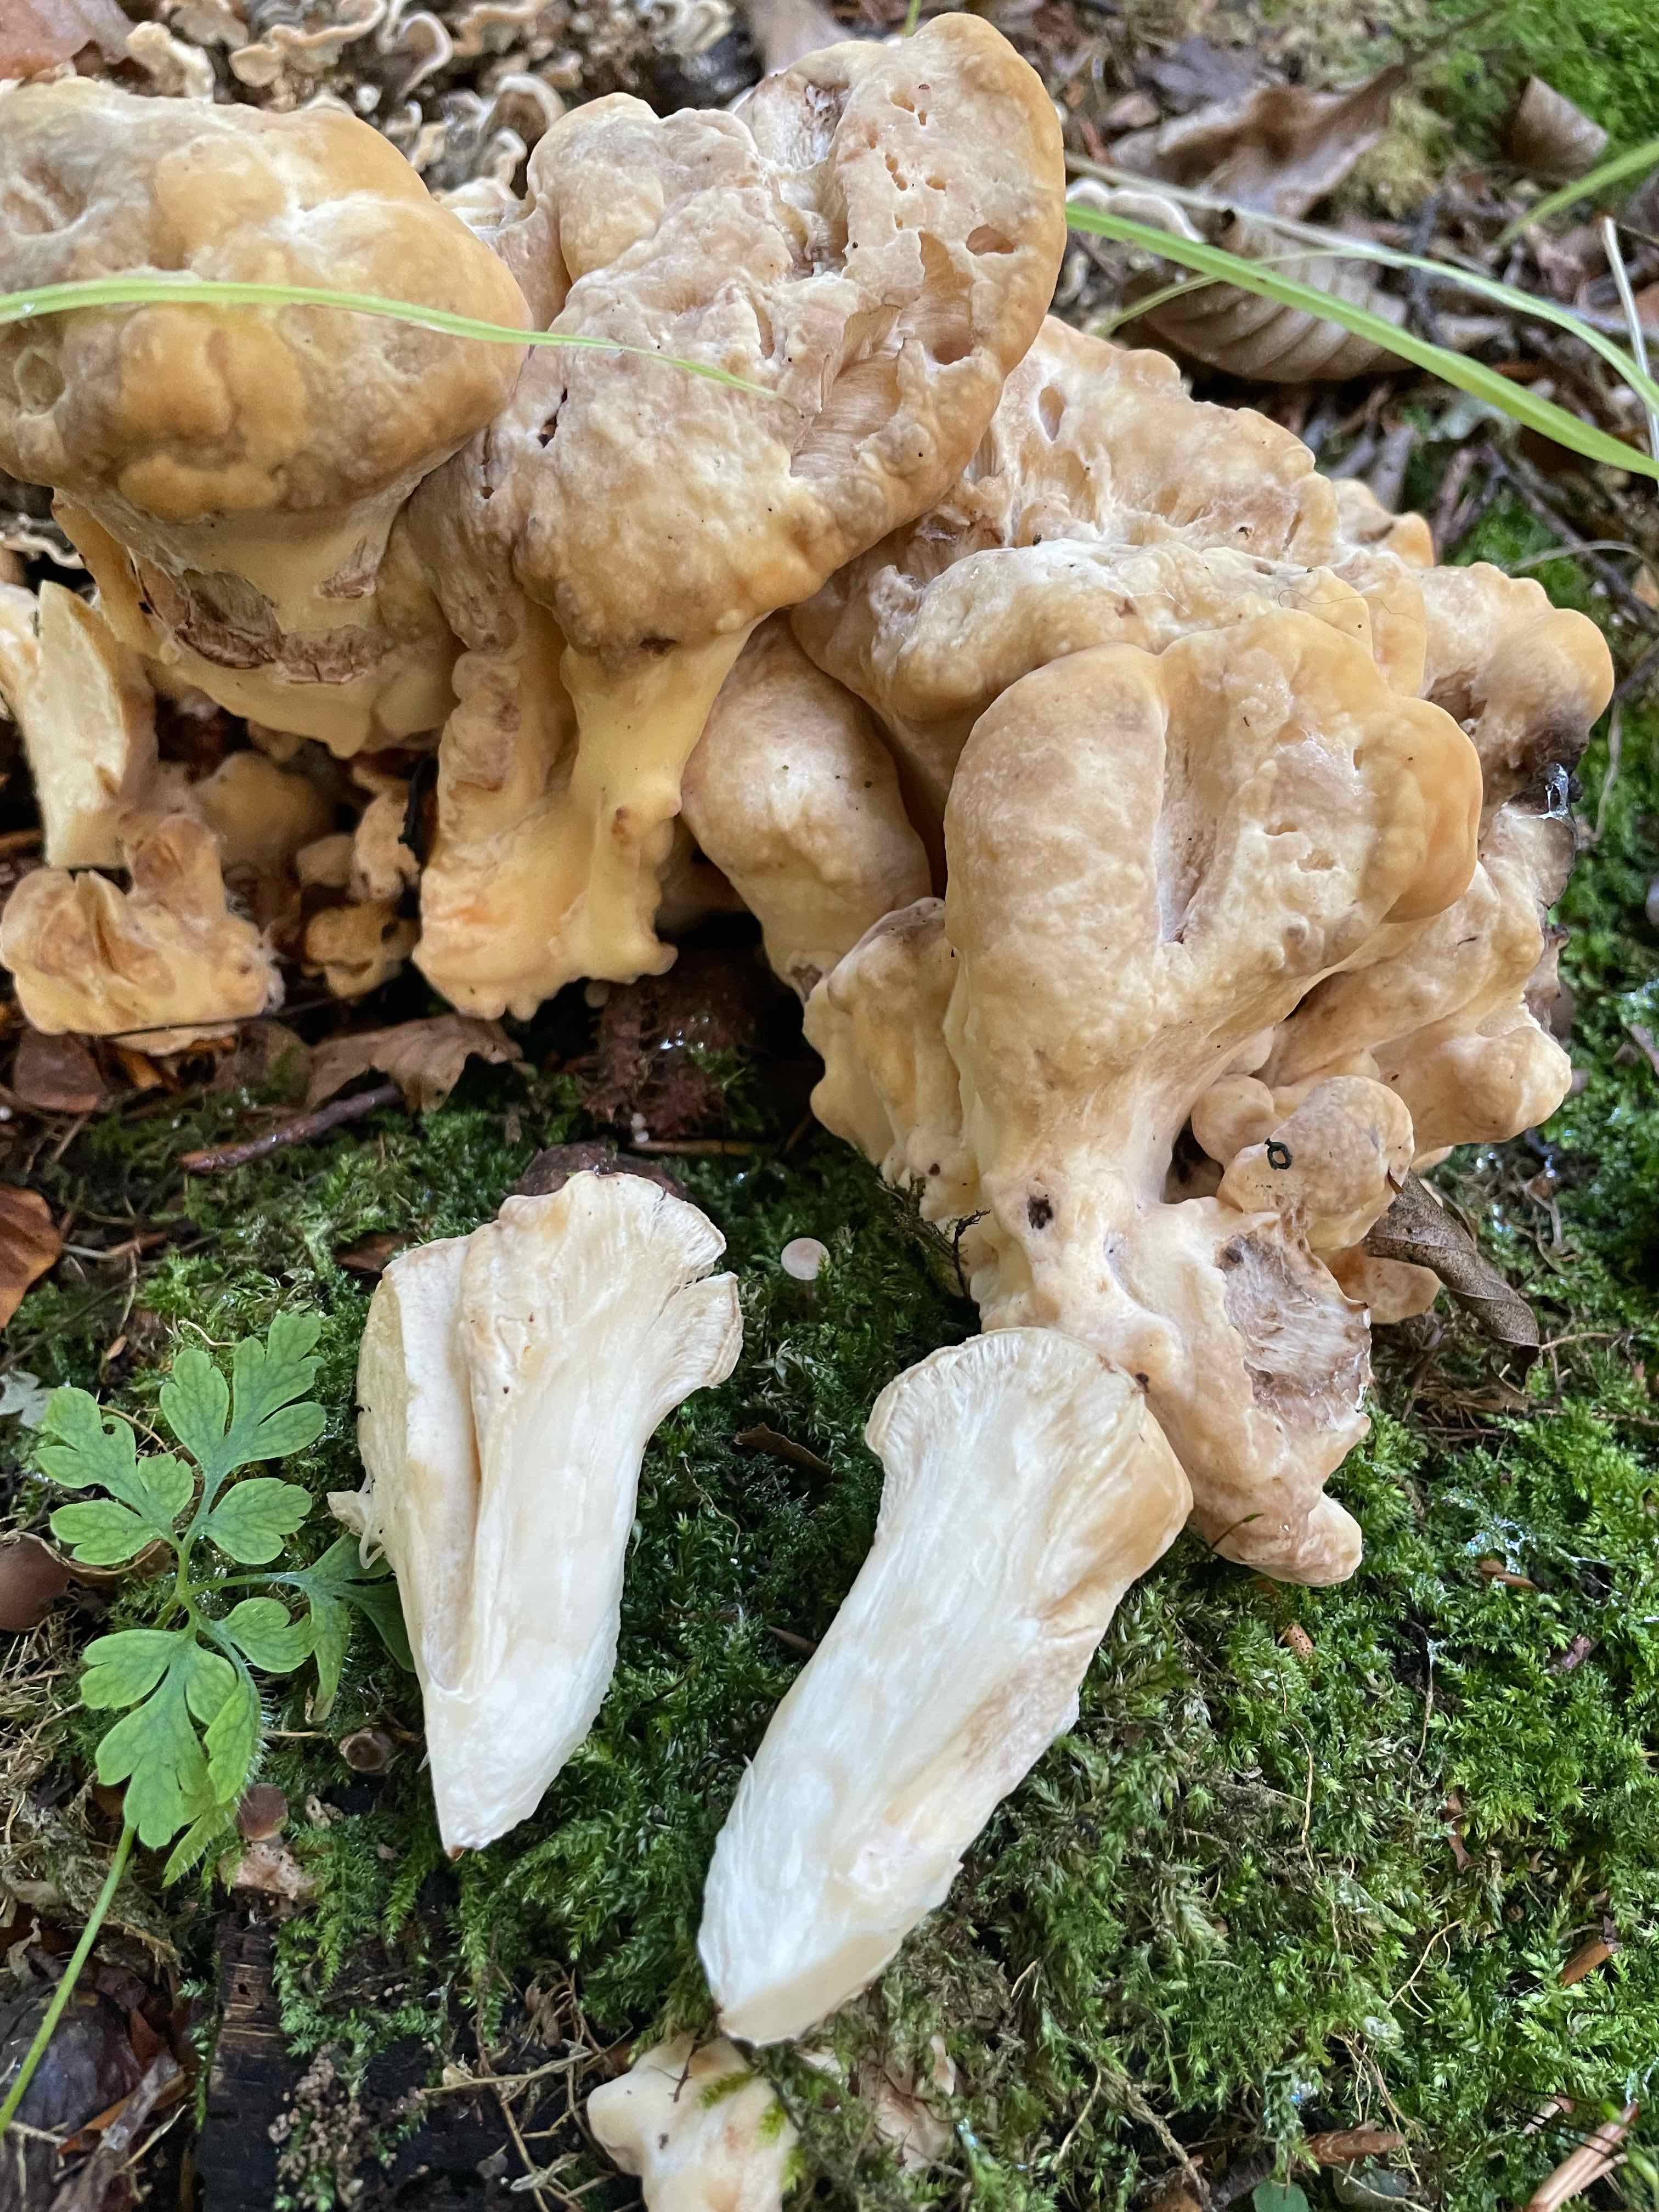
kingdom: Fungi
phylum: Basidiomycota
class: Agaricomycetes
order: Polyporales
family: Meripilaceae
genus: Meripilus
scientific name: Meripilus giganteus
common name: kæmpeporesvamp
